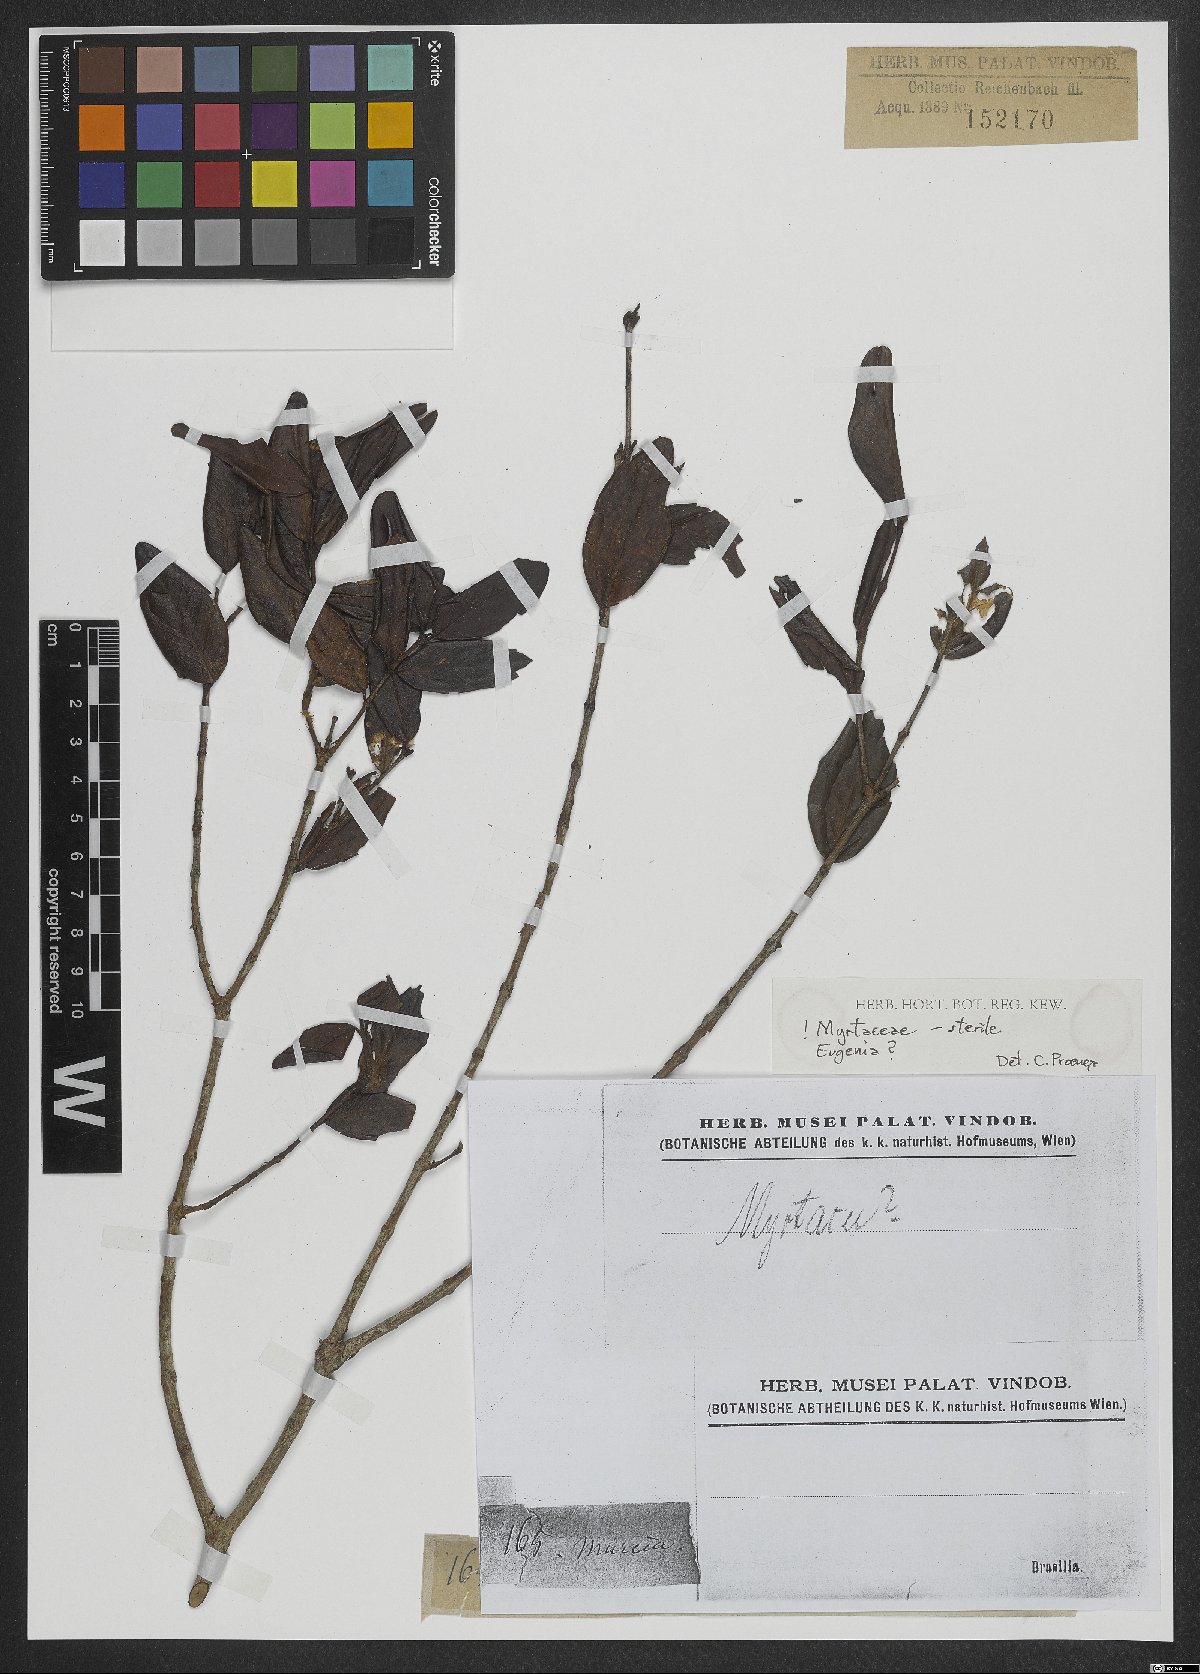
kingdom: Plantae
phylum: Tracheophyta
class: Magnoliopsida
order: Myrtales
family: Myrtaceae
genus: Eugenia
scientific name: Eugenia
